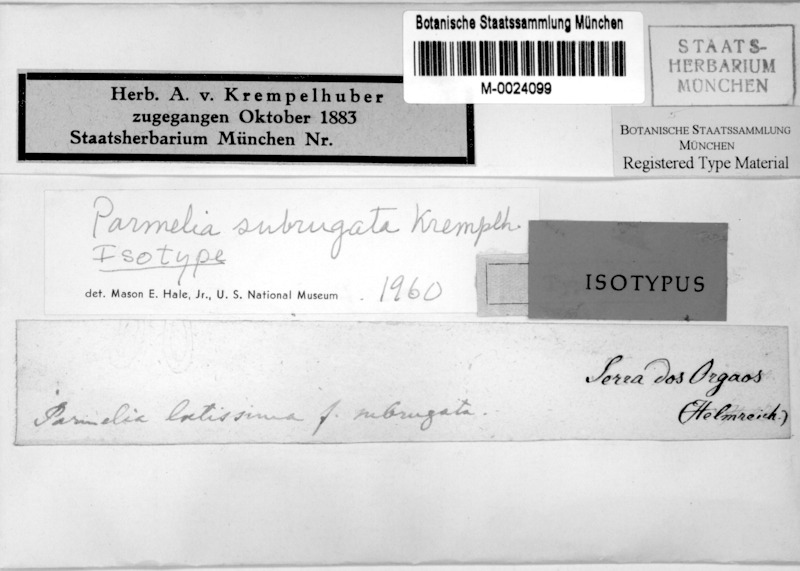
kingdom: Fungi
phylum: Ascomycota
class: Lecanoromycetes
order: Lecanorales
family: Parmeliaceae
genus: Parmotrema
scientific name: Parmotrema subrugatum
